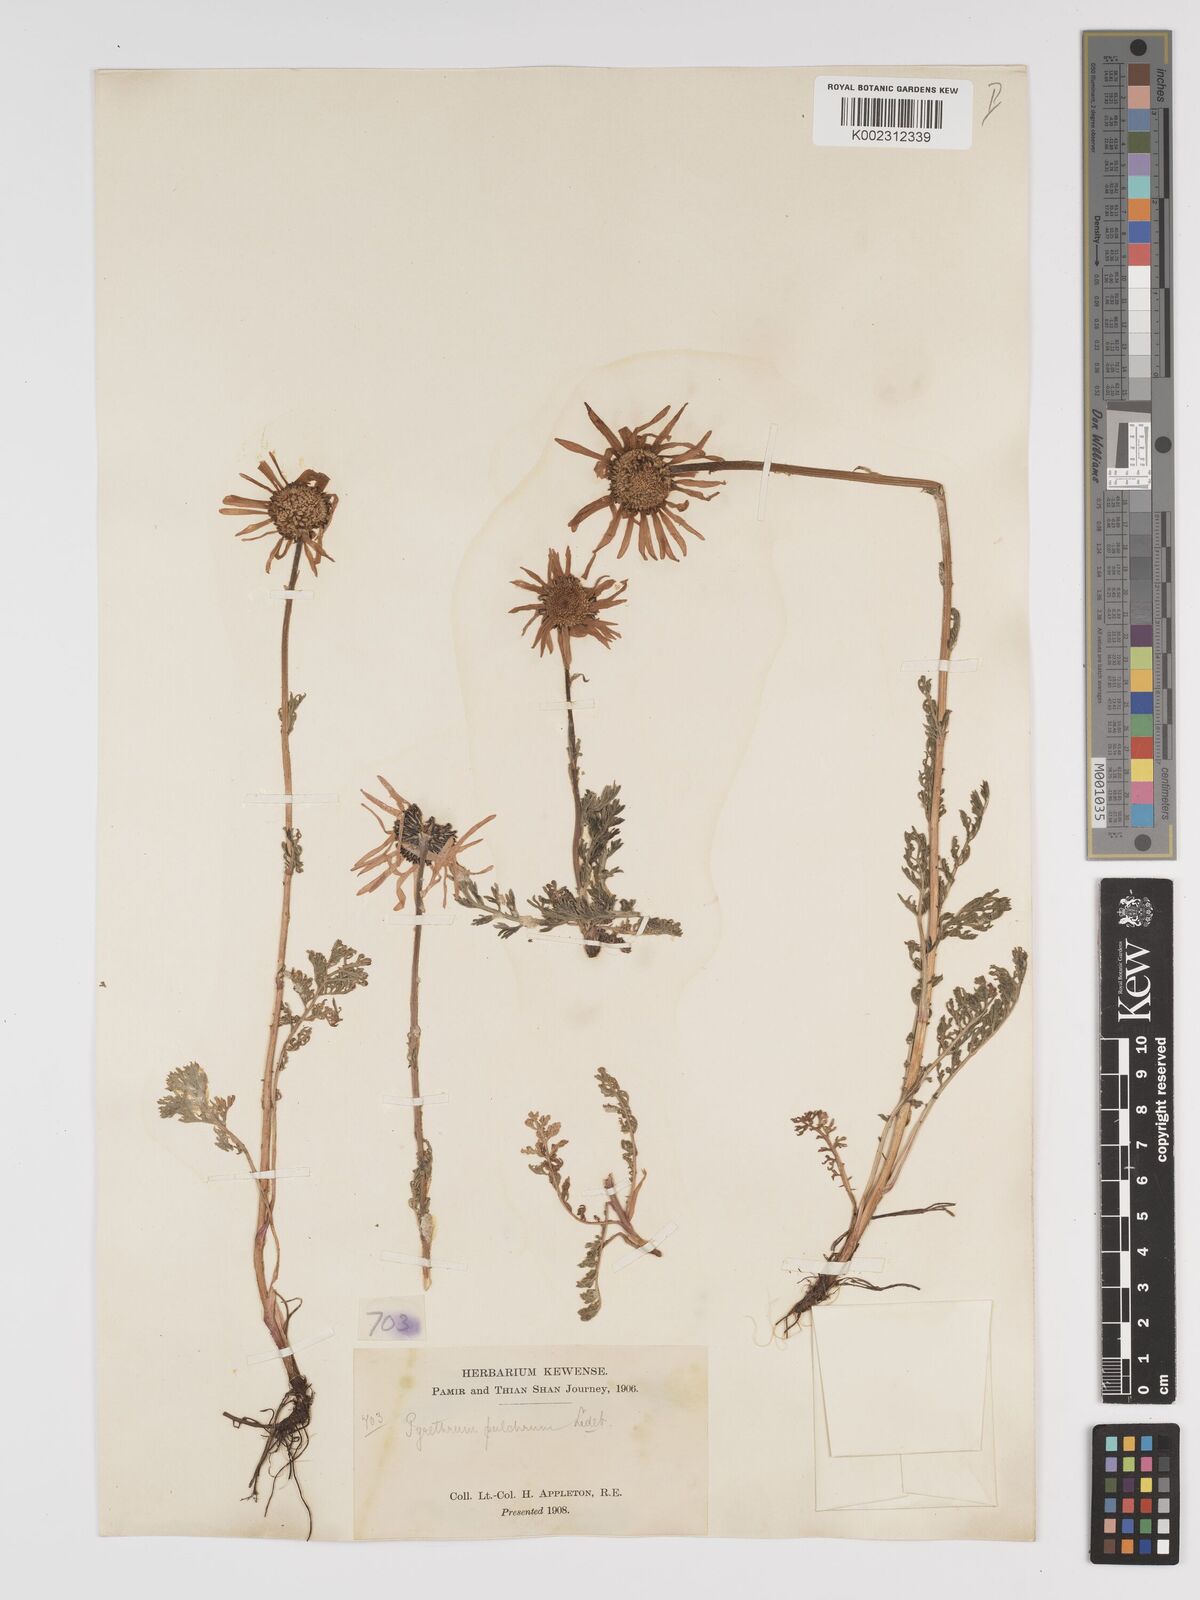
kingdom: Plantae
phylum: Tracheophyta
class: Magnoliopsida
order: Asterales
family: Asteraceae
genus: Tanacetum
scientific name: Tanacetum pulchrum
